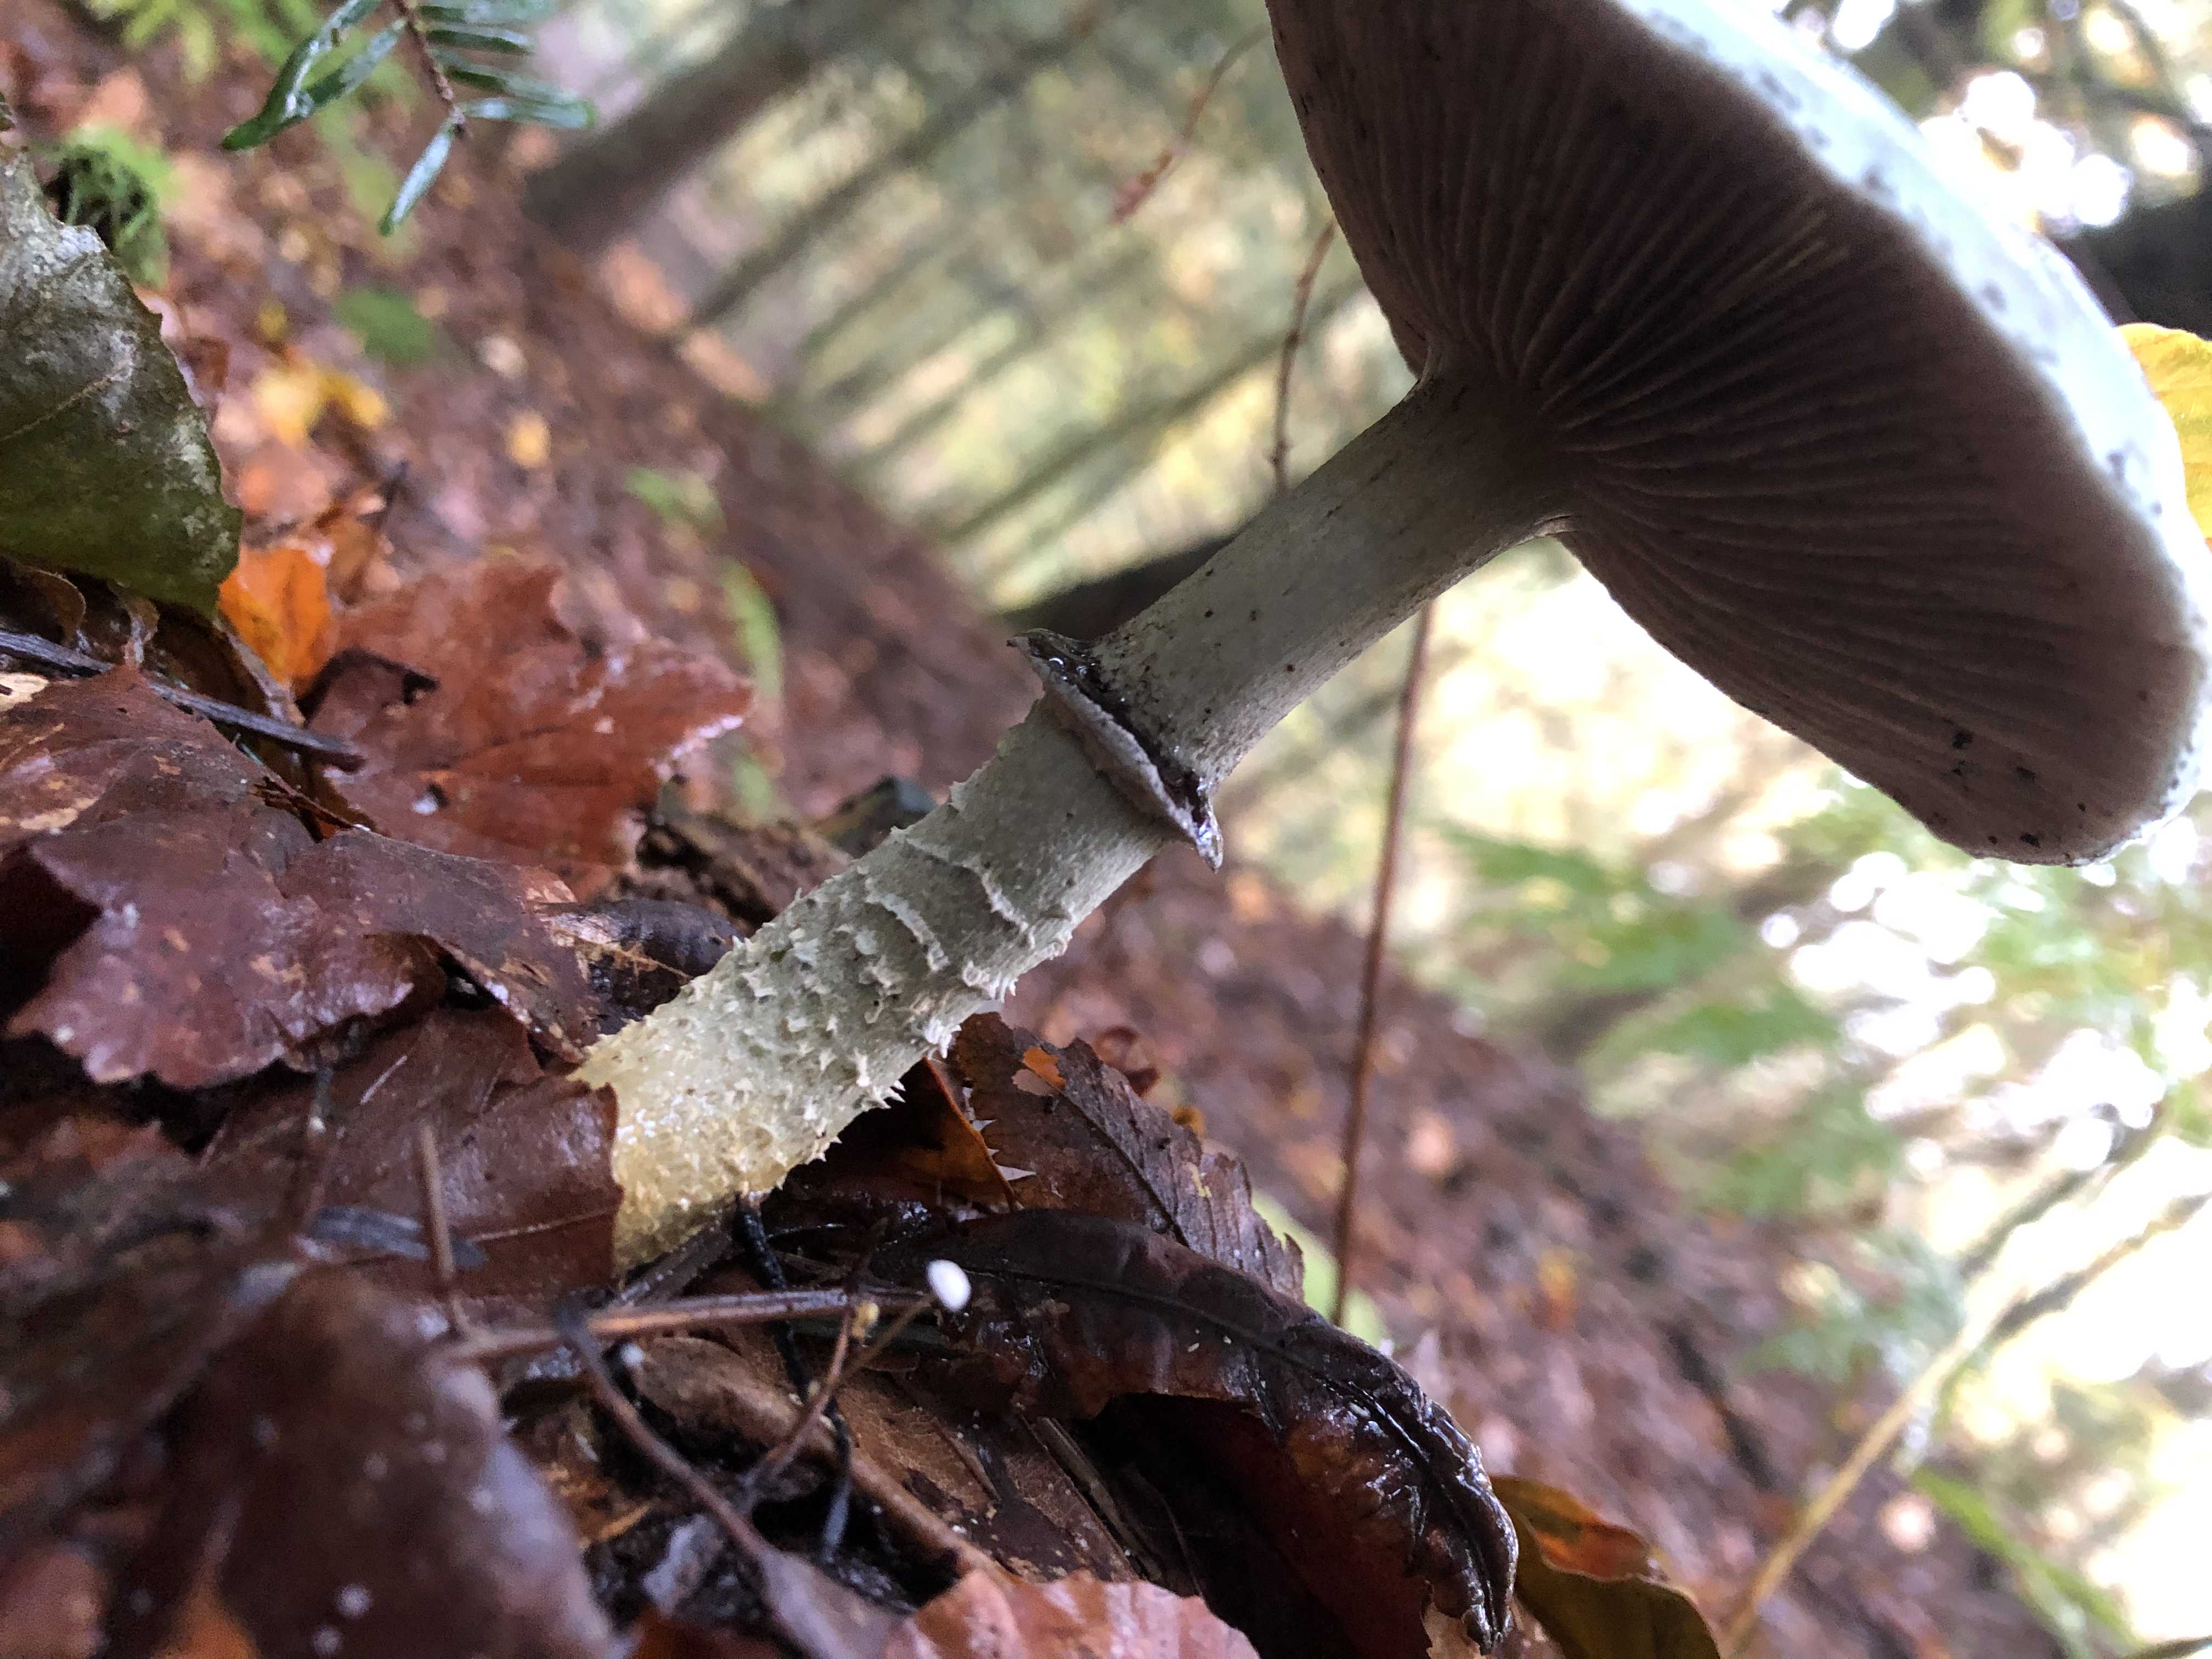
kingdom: Fungi
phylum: Basidiomycota
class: Agaricomycetes
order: Agaricales
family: Strophariaceae
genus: Stropharia
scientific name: Stropharia
